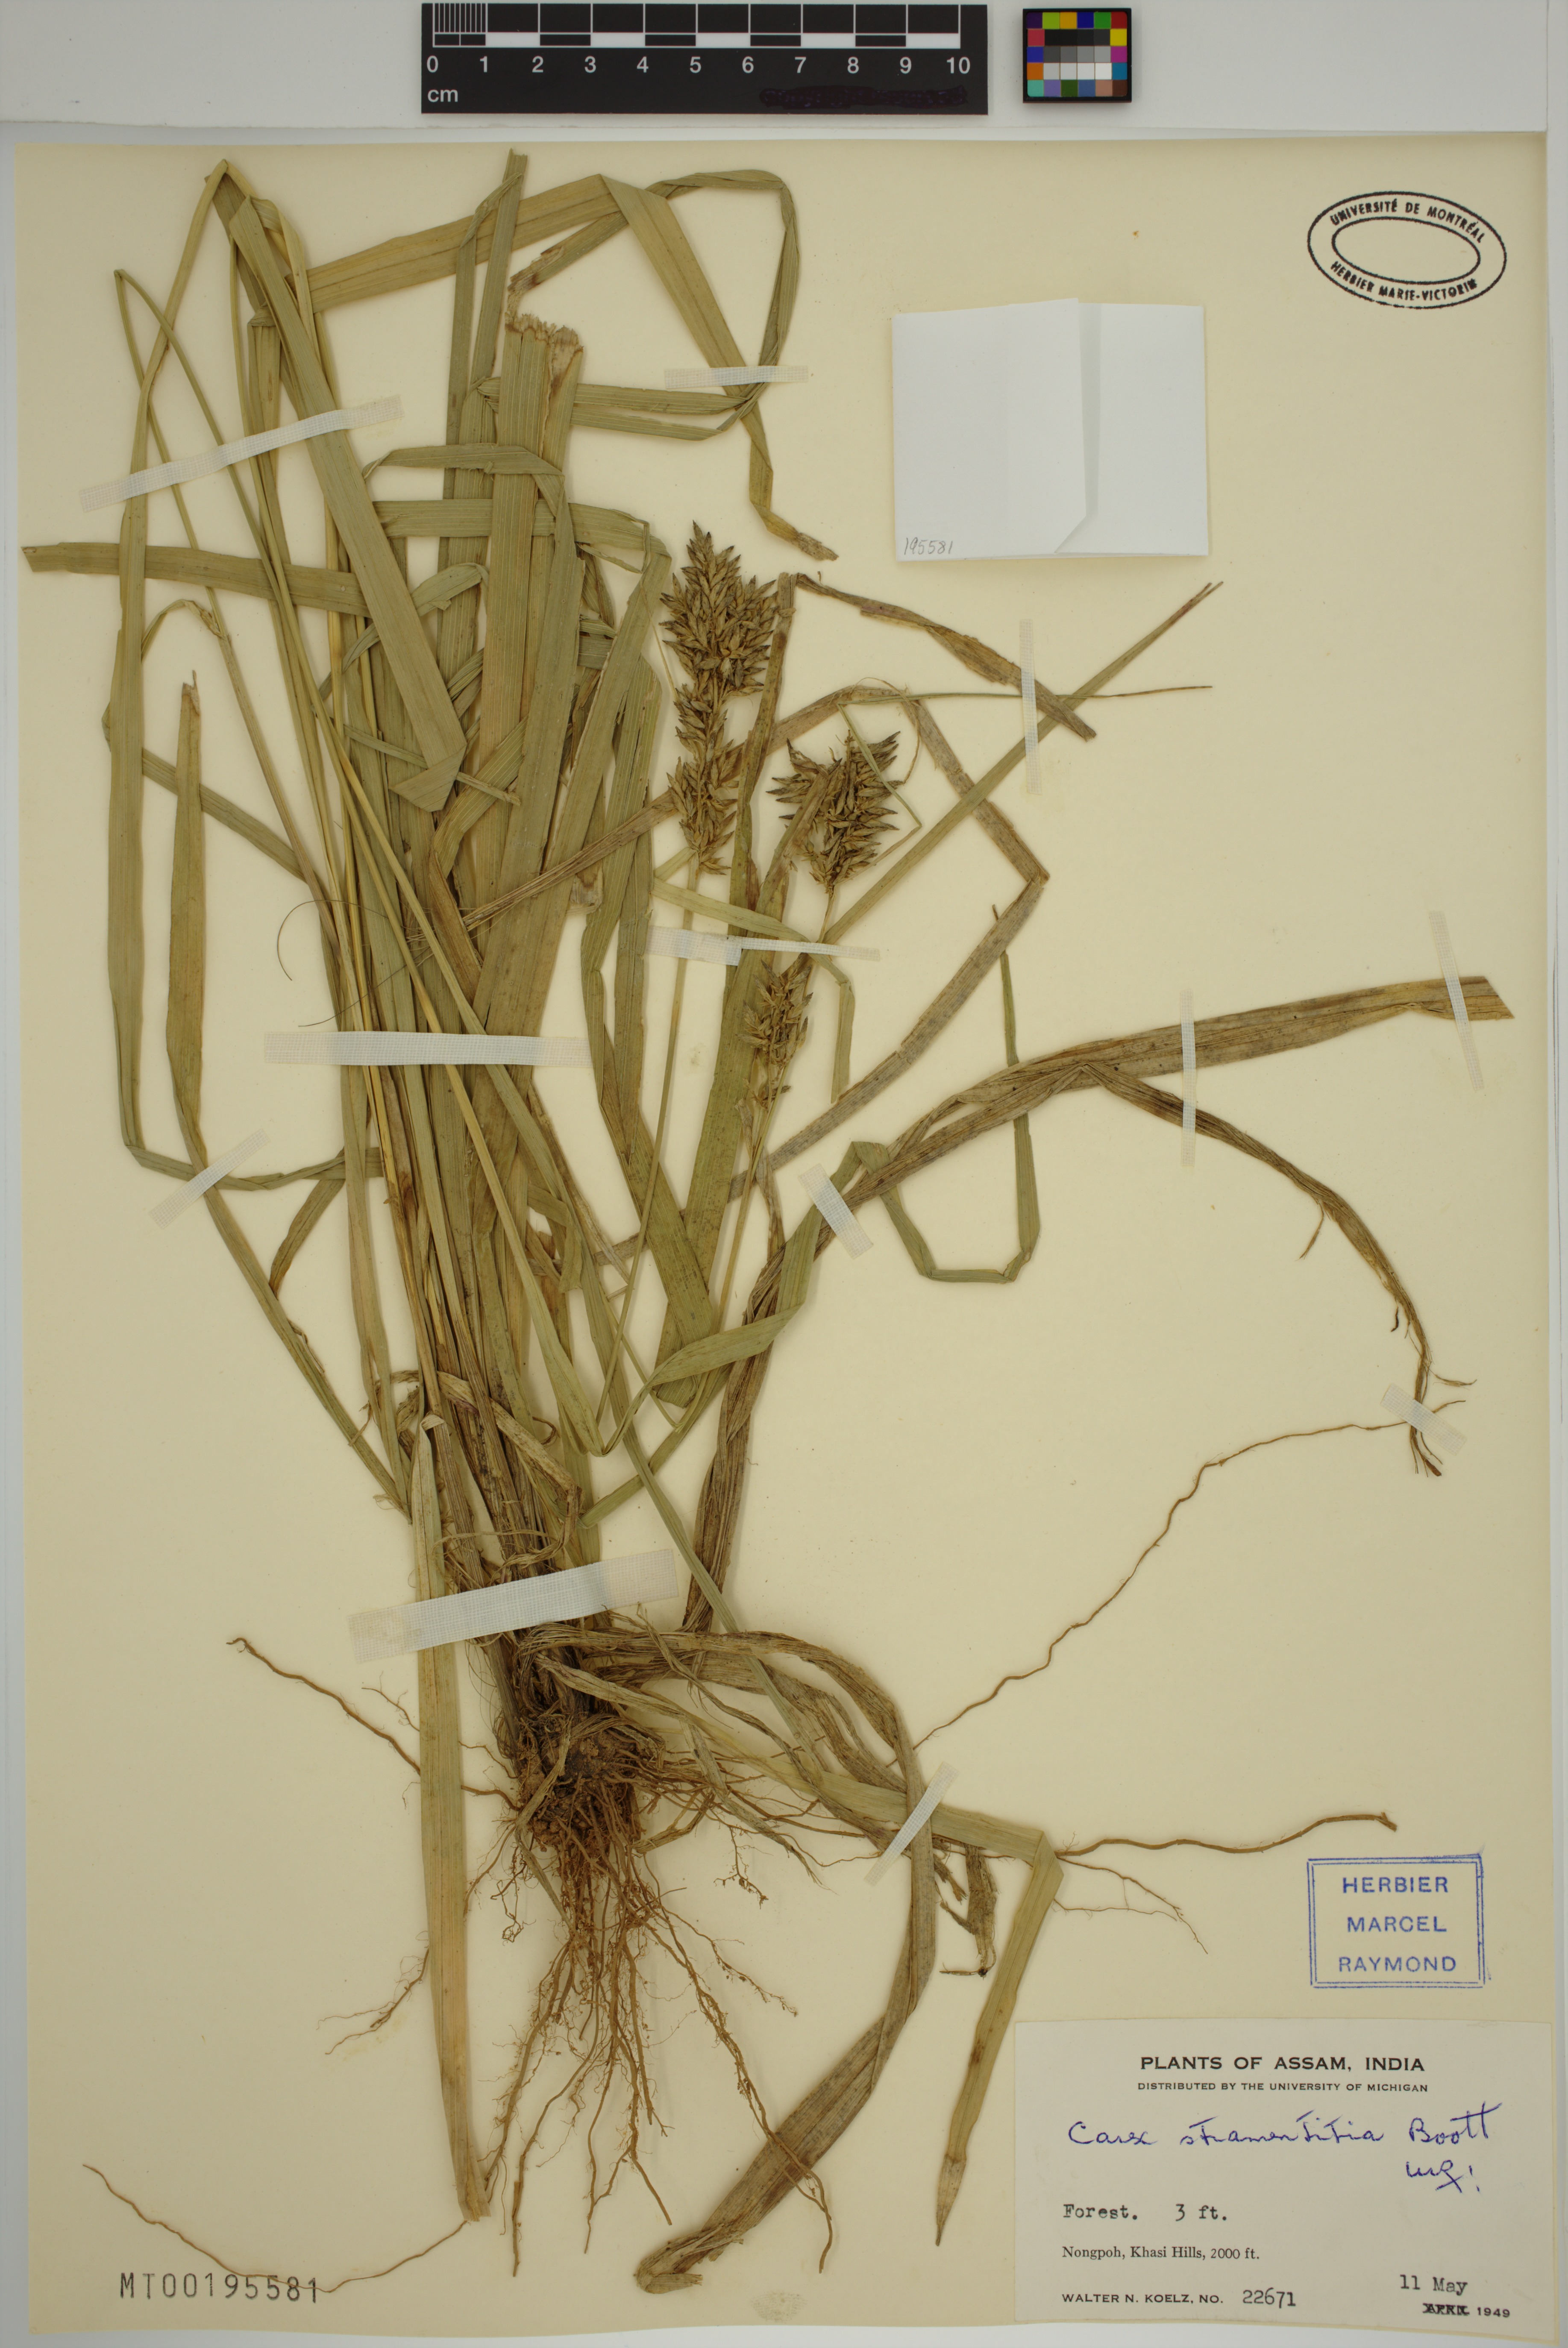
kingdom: Plantae
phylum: Tracheophyta
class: Liliopsida
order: Poales
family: Cyperaceae
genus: Carex
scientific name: Carex stramentitia
